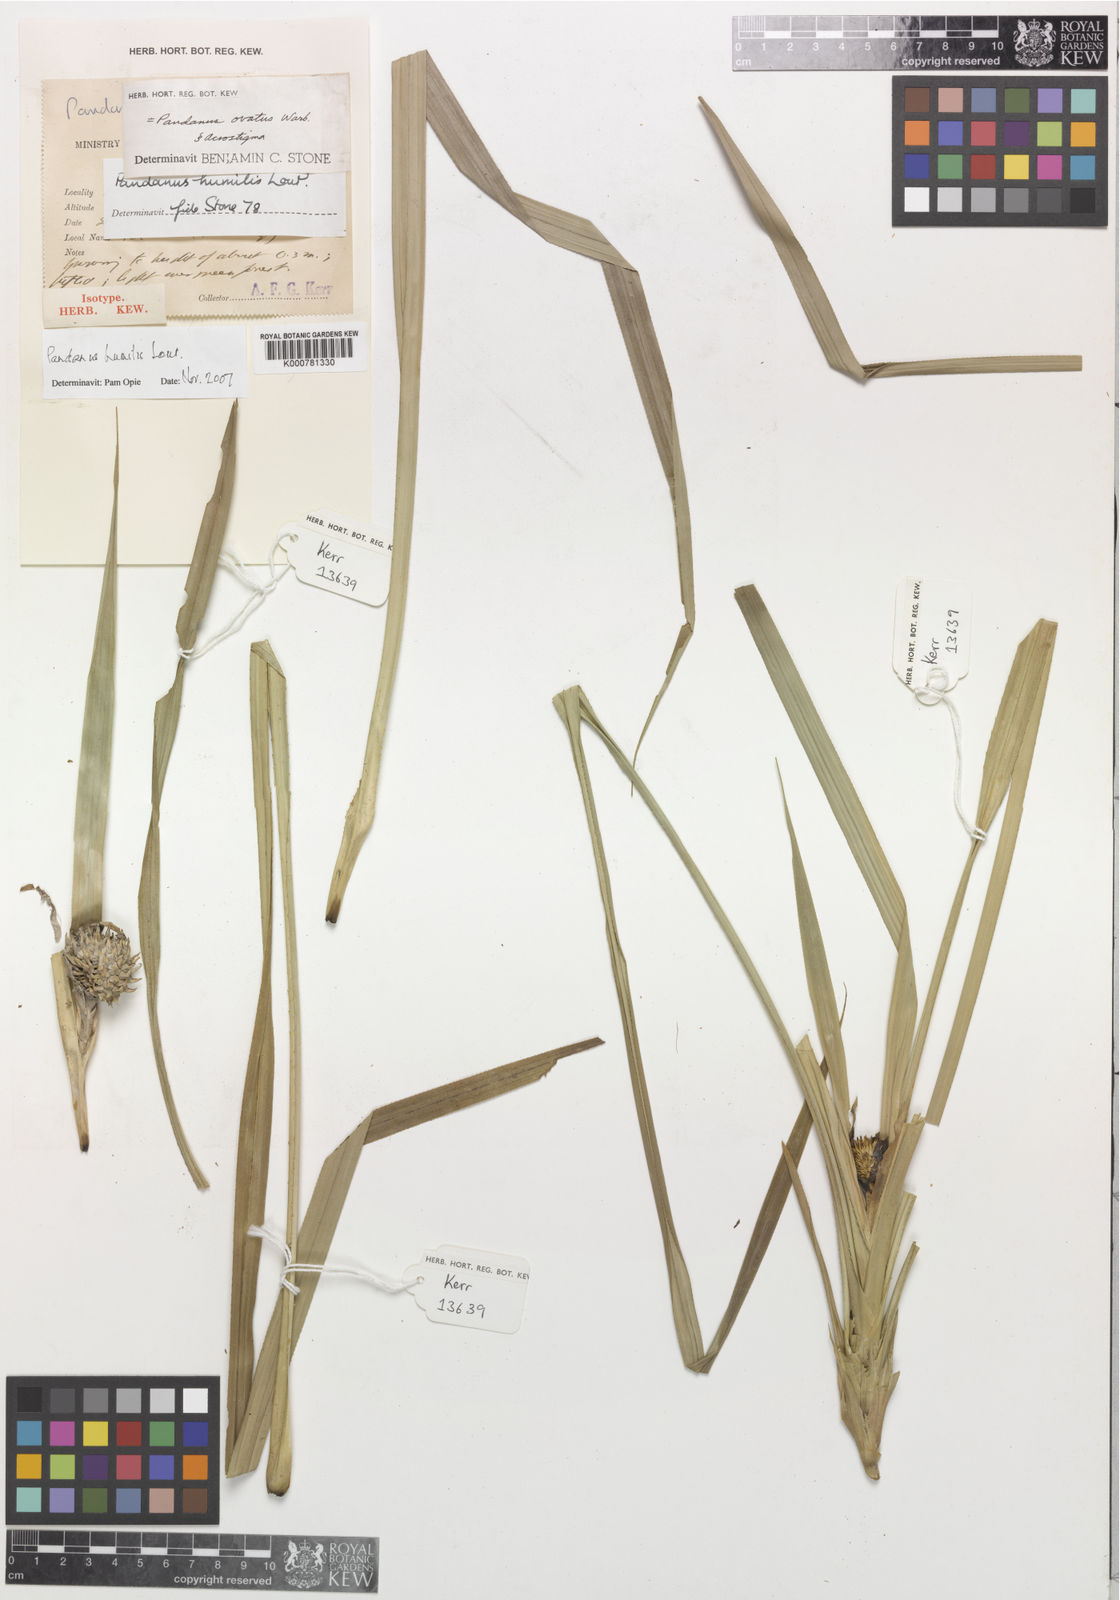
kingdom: Plantae
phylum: Tracheophyta
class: Liliopsida
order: Pandanales
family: Pandanaceae
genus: Benstonea
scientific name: Benstonea humilis
